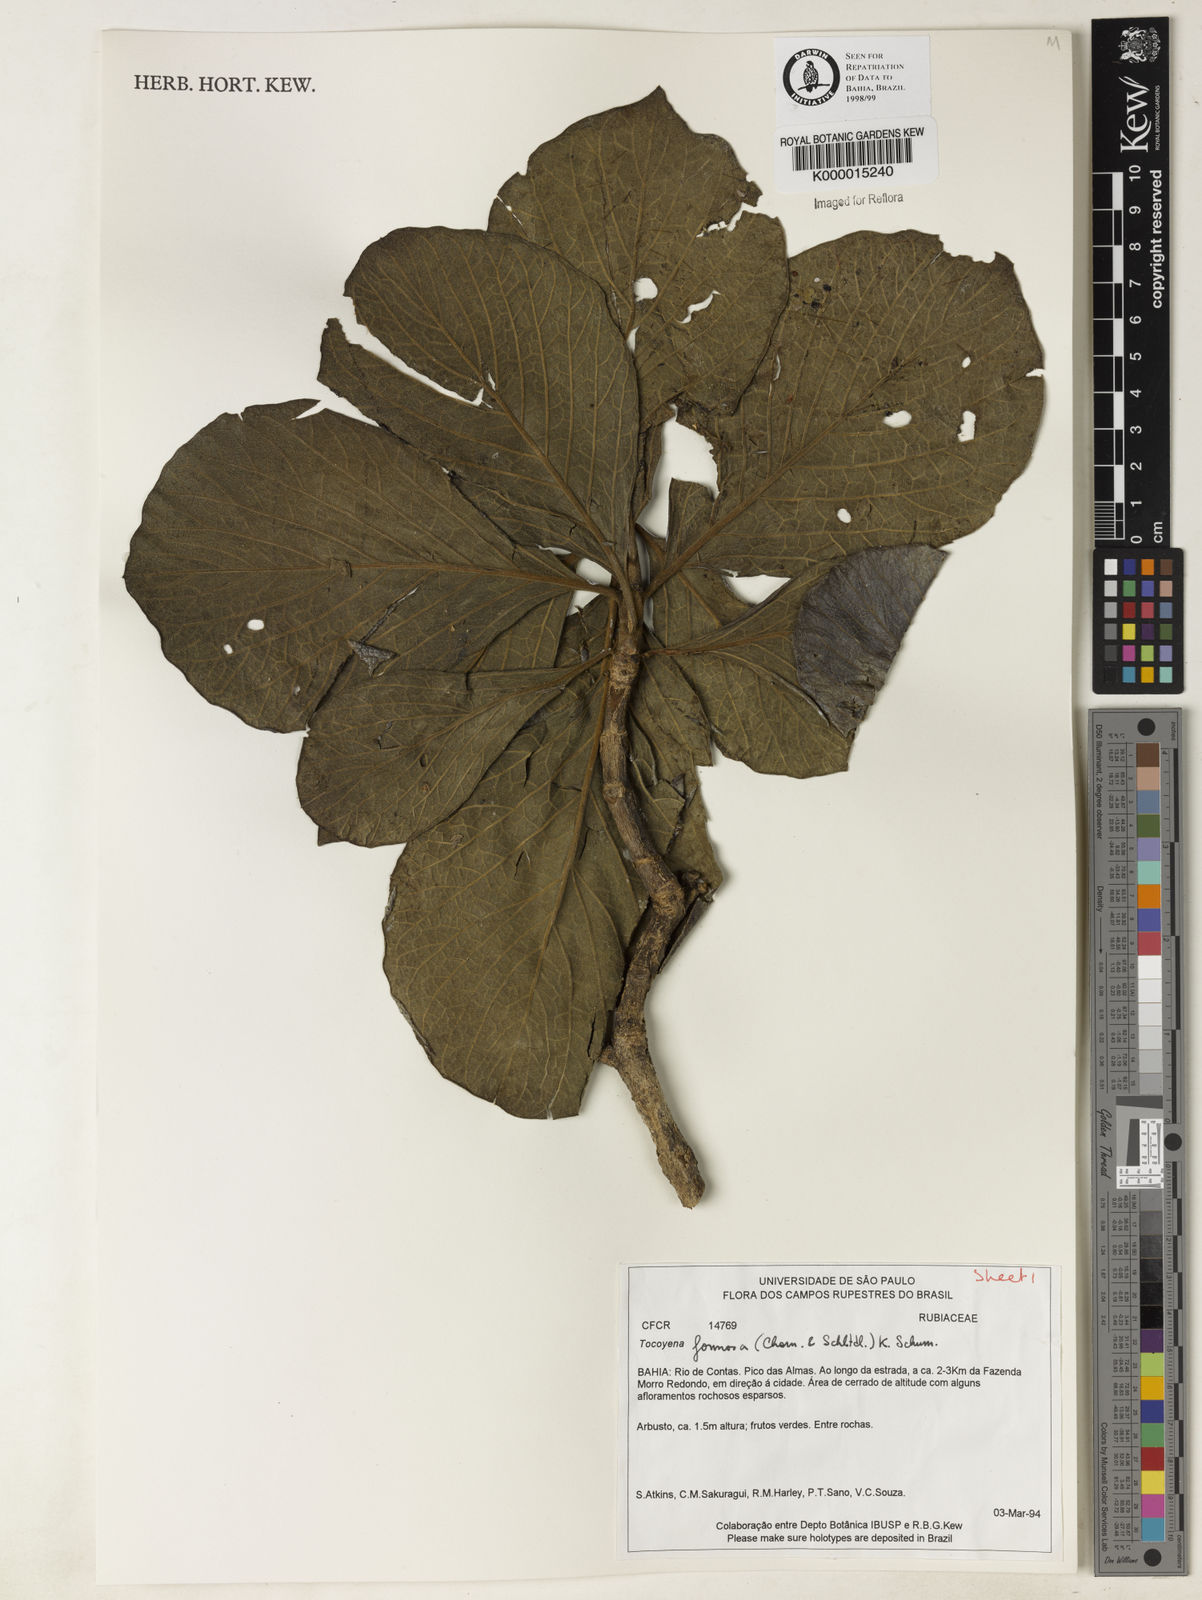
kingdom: Plantae
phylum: Tracheophyta
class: Magnoliopsida
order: Gentianales
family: Rubiaceae
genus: Tocoyena
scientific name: Tocoyena formosa
